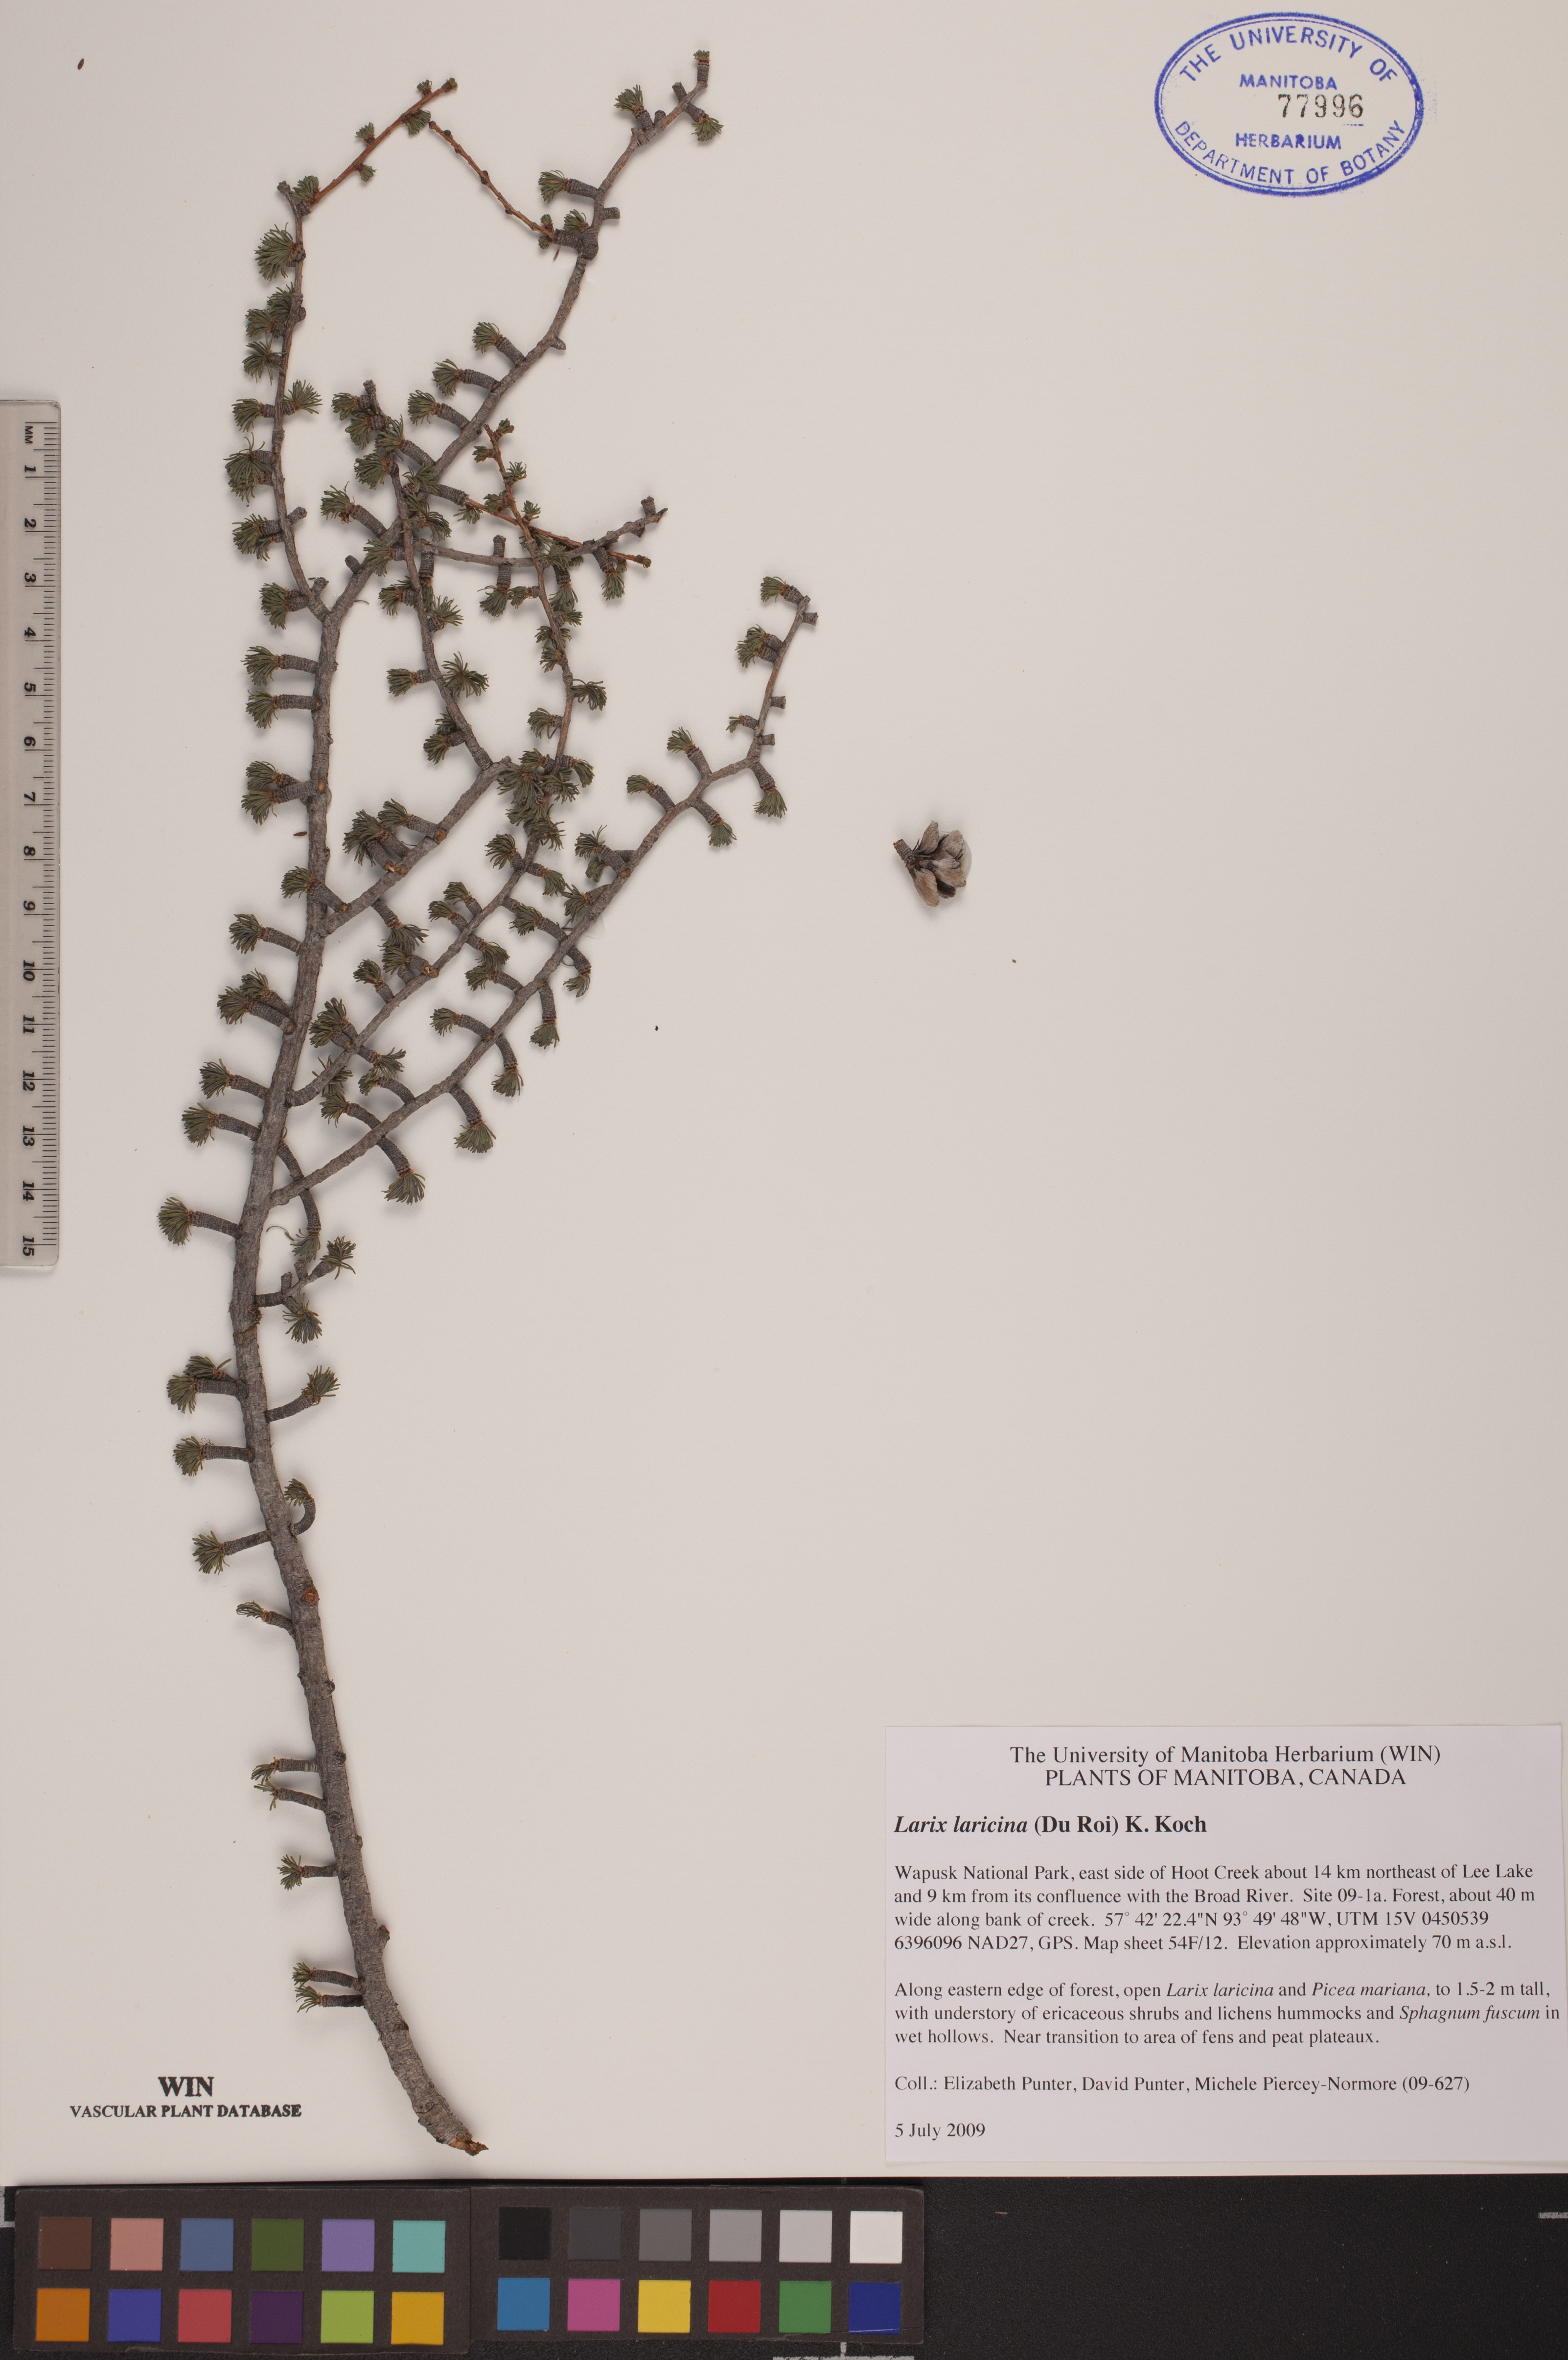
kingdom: Plantae
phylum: Tracheophyta
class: Pinopsida
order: Pinales
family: Pinaceae
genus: Larix
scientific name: Larix laricina
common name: American larch
